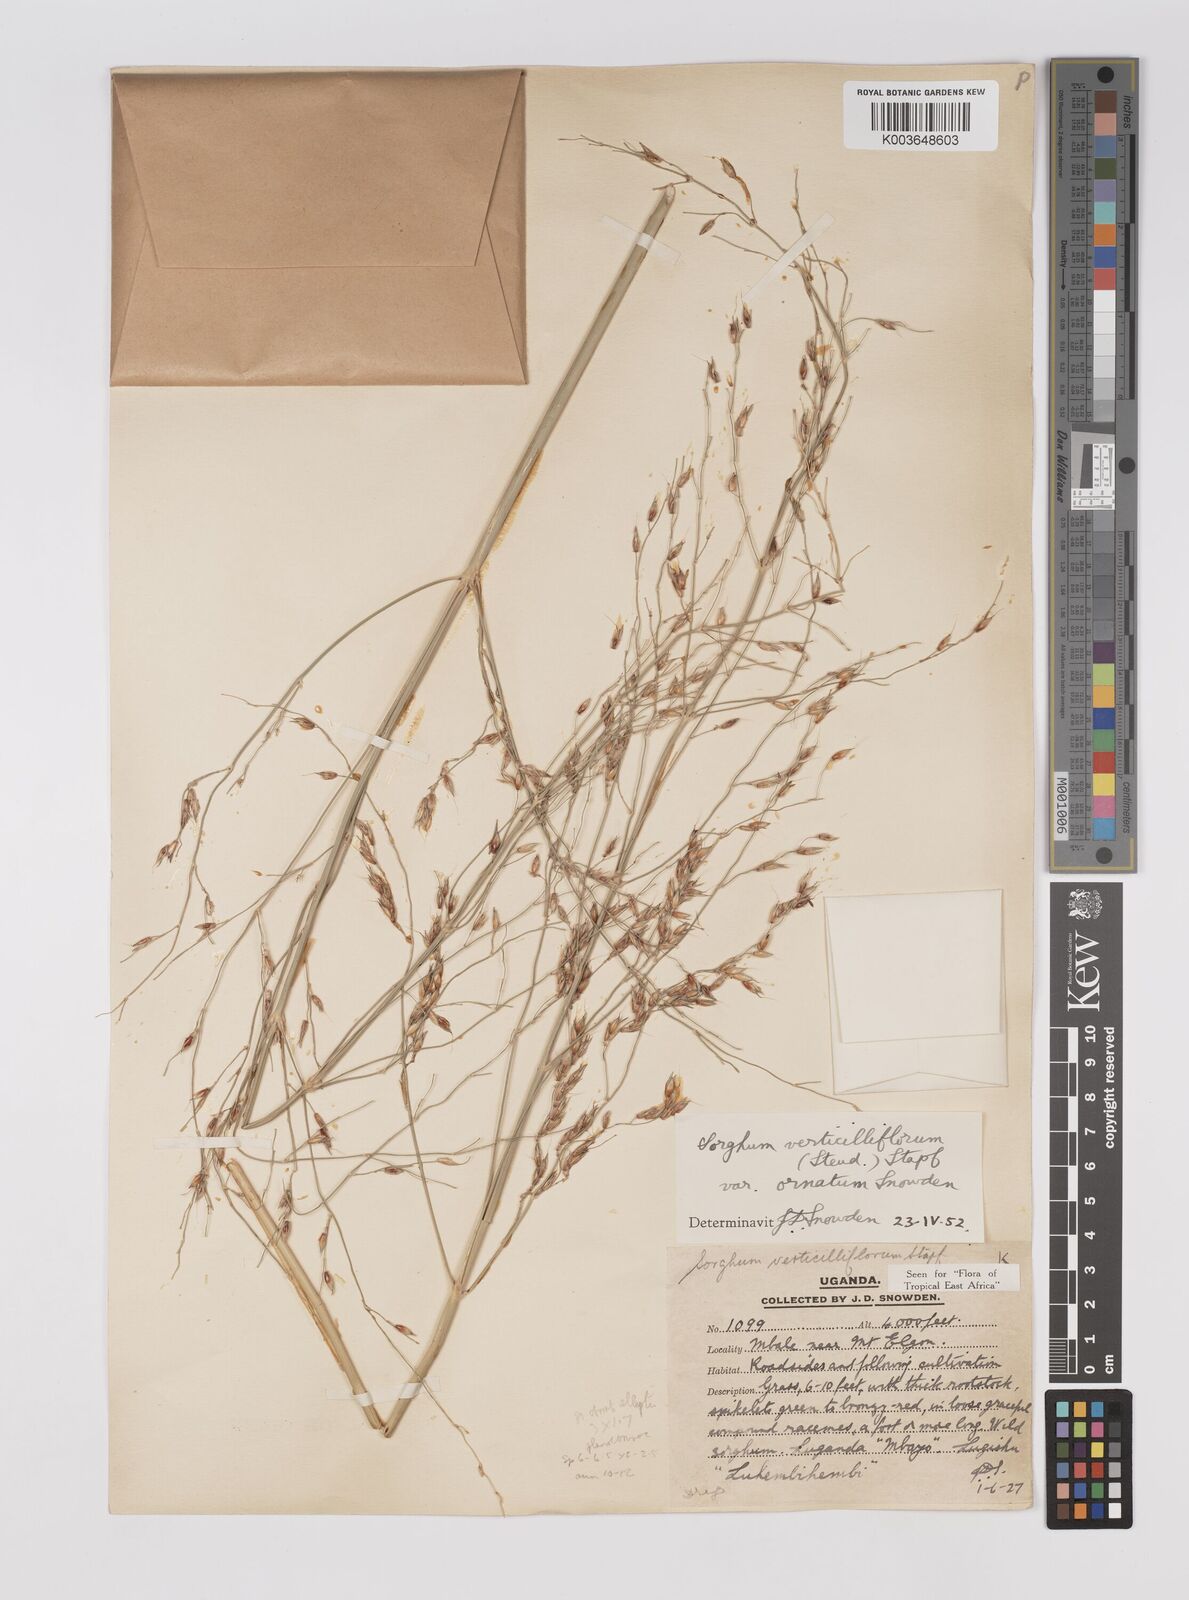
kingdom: Plantae
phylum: Tracheophyta
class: Liliopsida
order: Poales
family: Poaceae
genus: Sorghum
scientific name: Sorghum arundinaceum
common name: Sorghum
